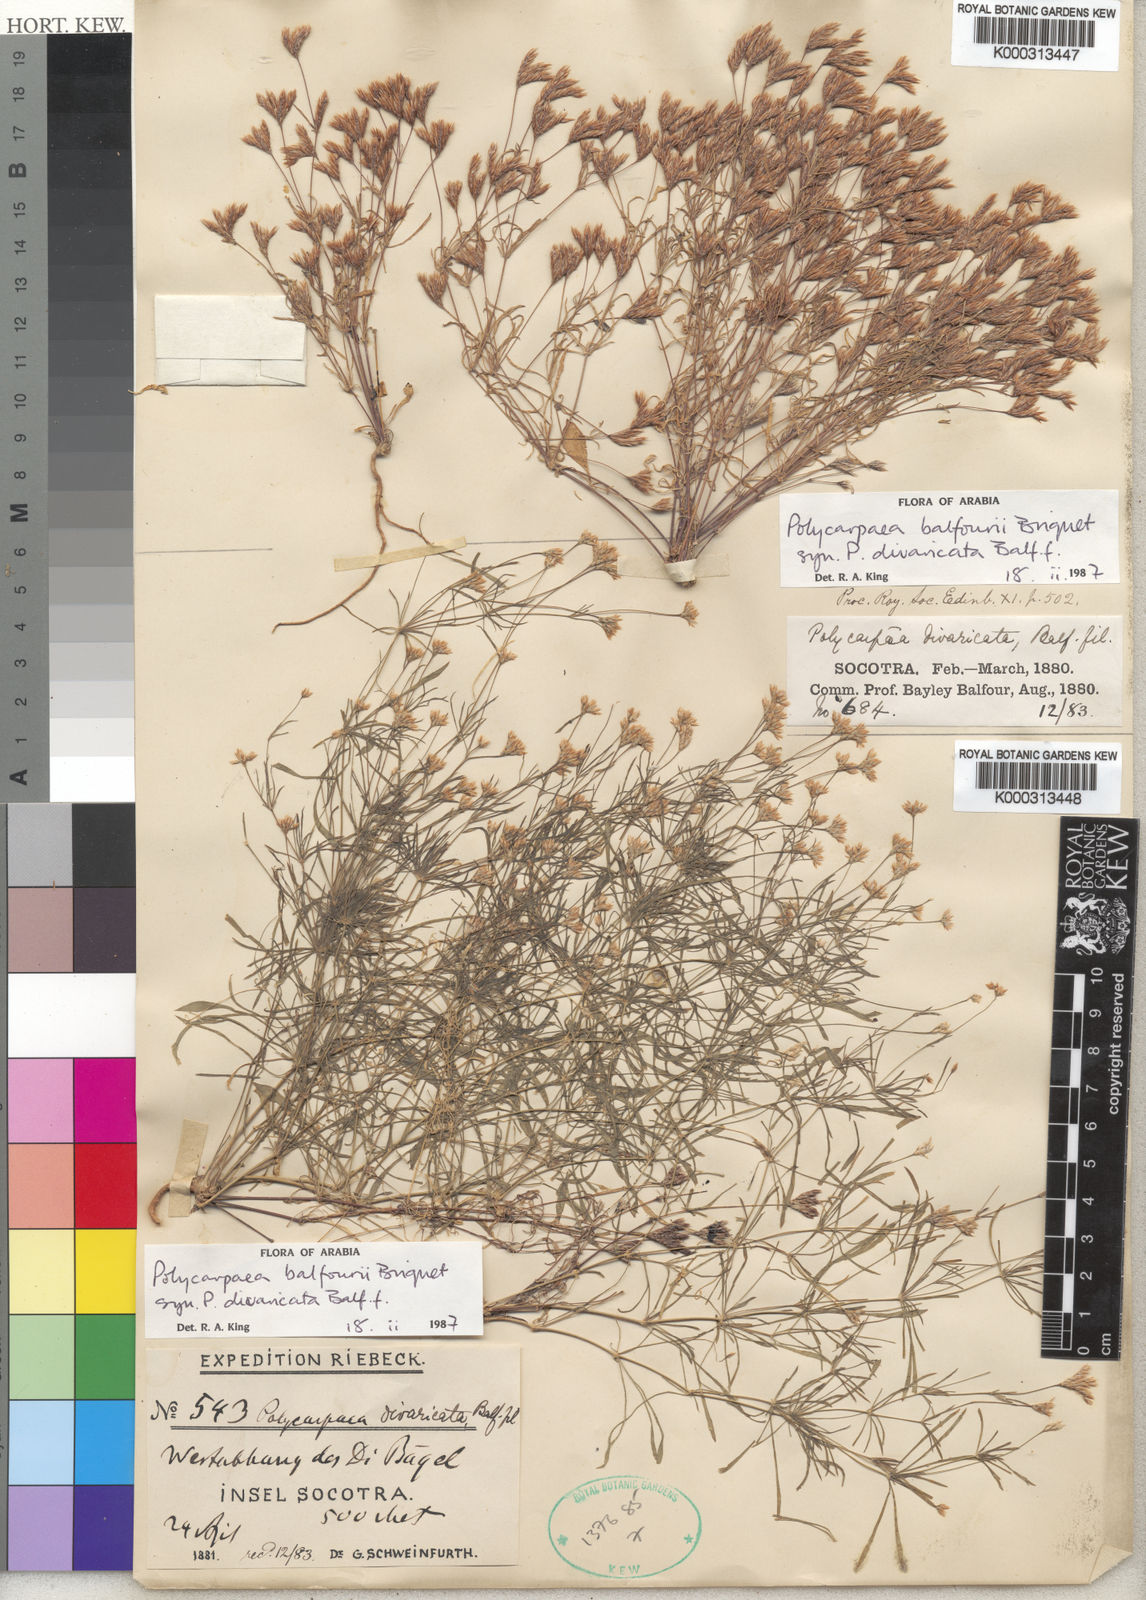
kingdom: Plantae
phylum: Tracheophyta
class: Magnoliopsida
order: Caryophyllales
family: Caryophyllaceae
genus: Polycarpaea
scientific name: Polycarpaea balfourii
